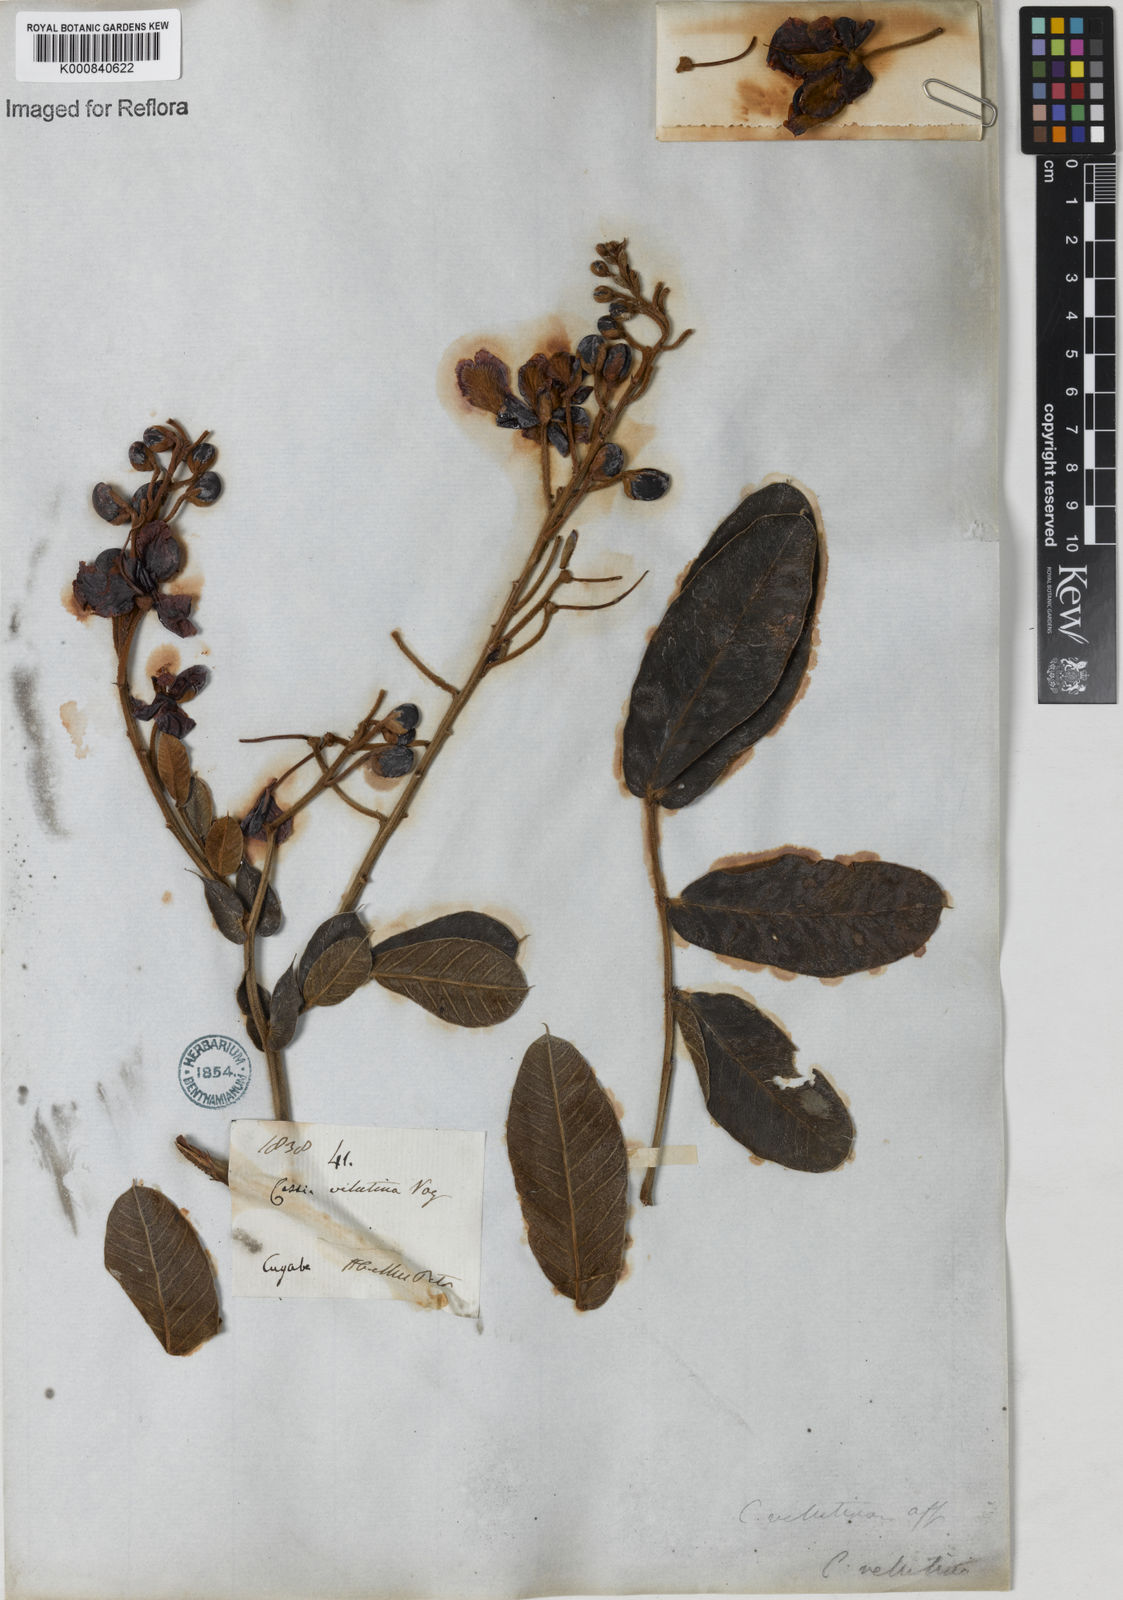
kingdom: Plantae
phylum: Tracheophyta
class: Magnoliopsida
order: Fabales
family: Fabaceae
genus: Senna
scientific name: Senna velutina
